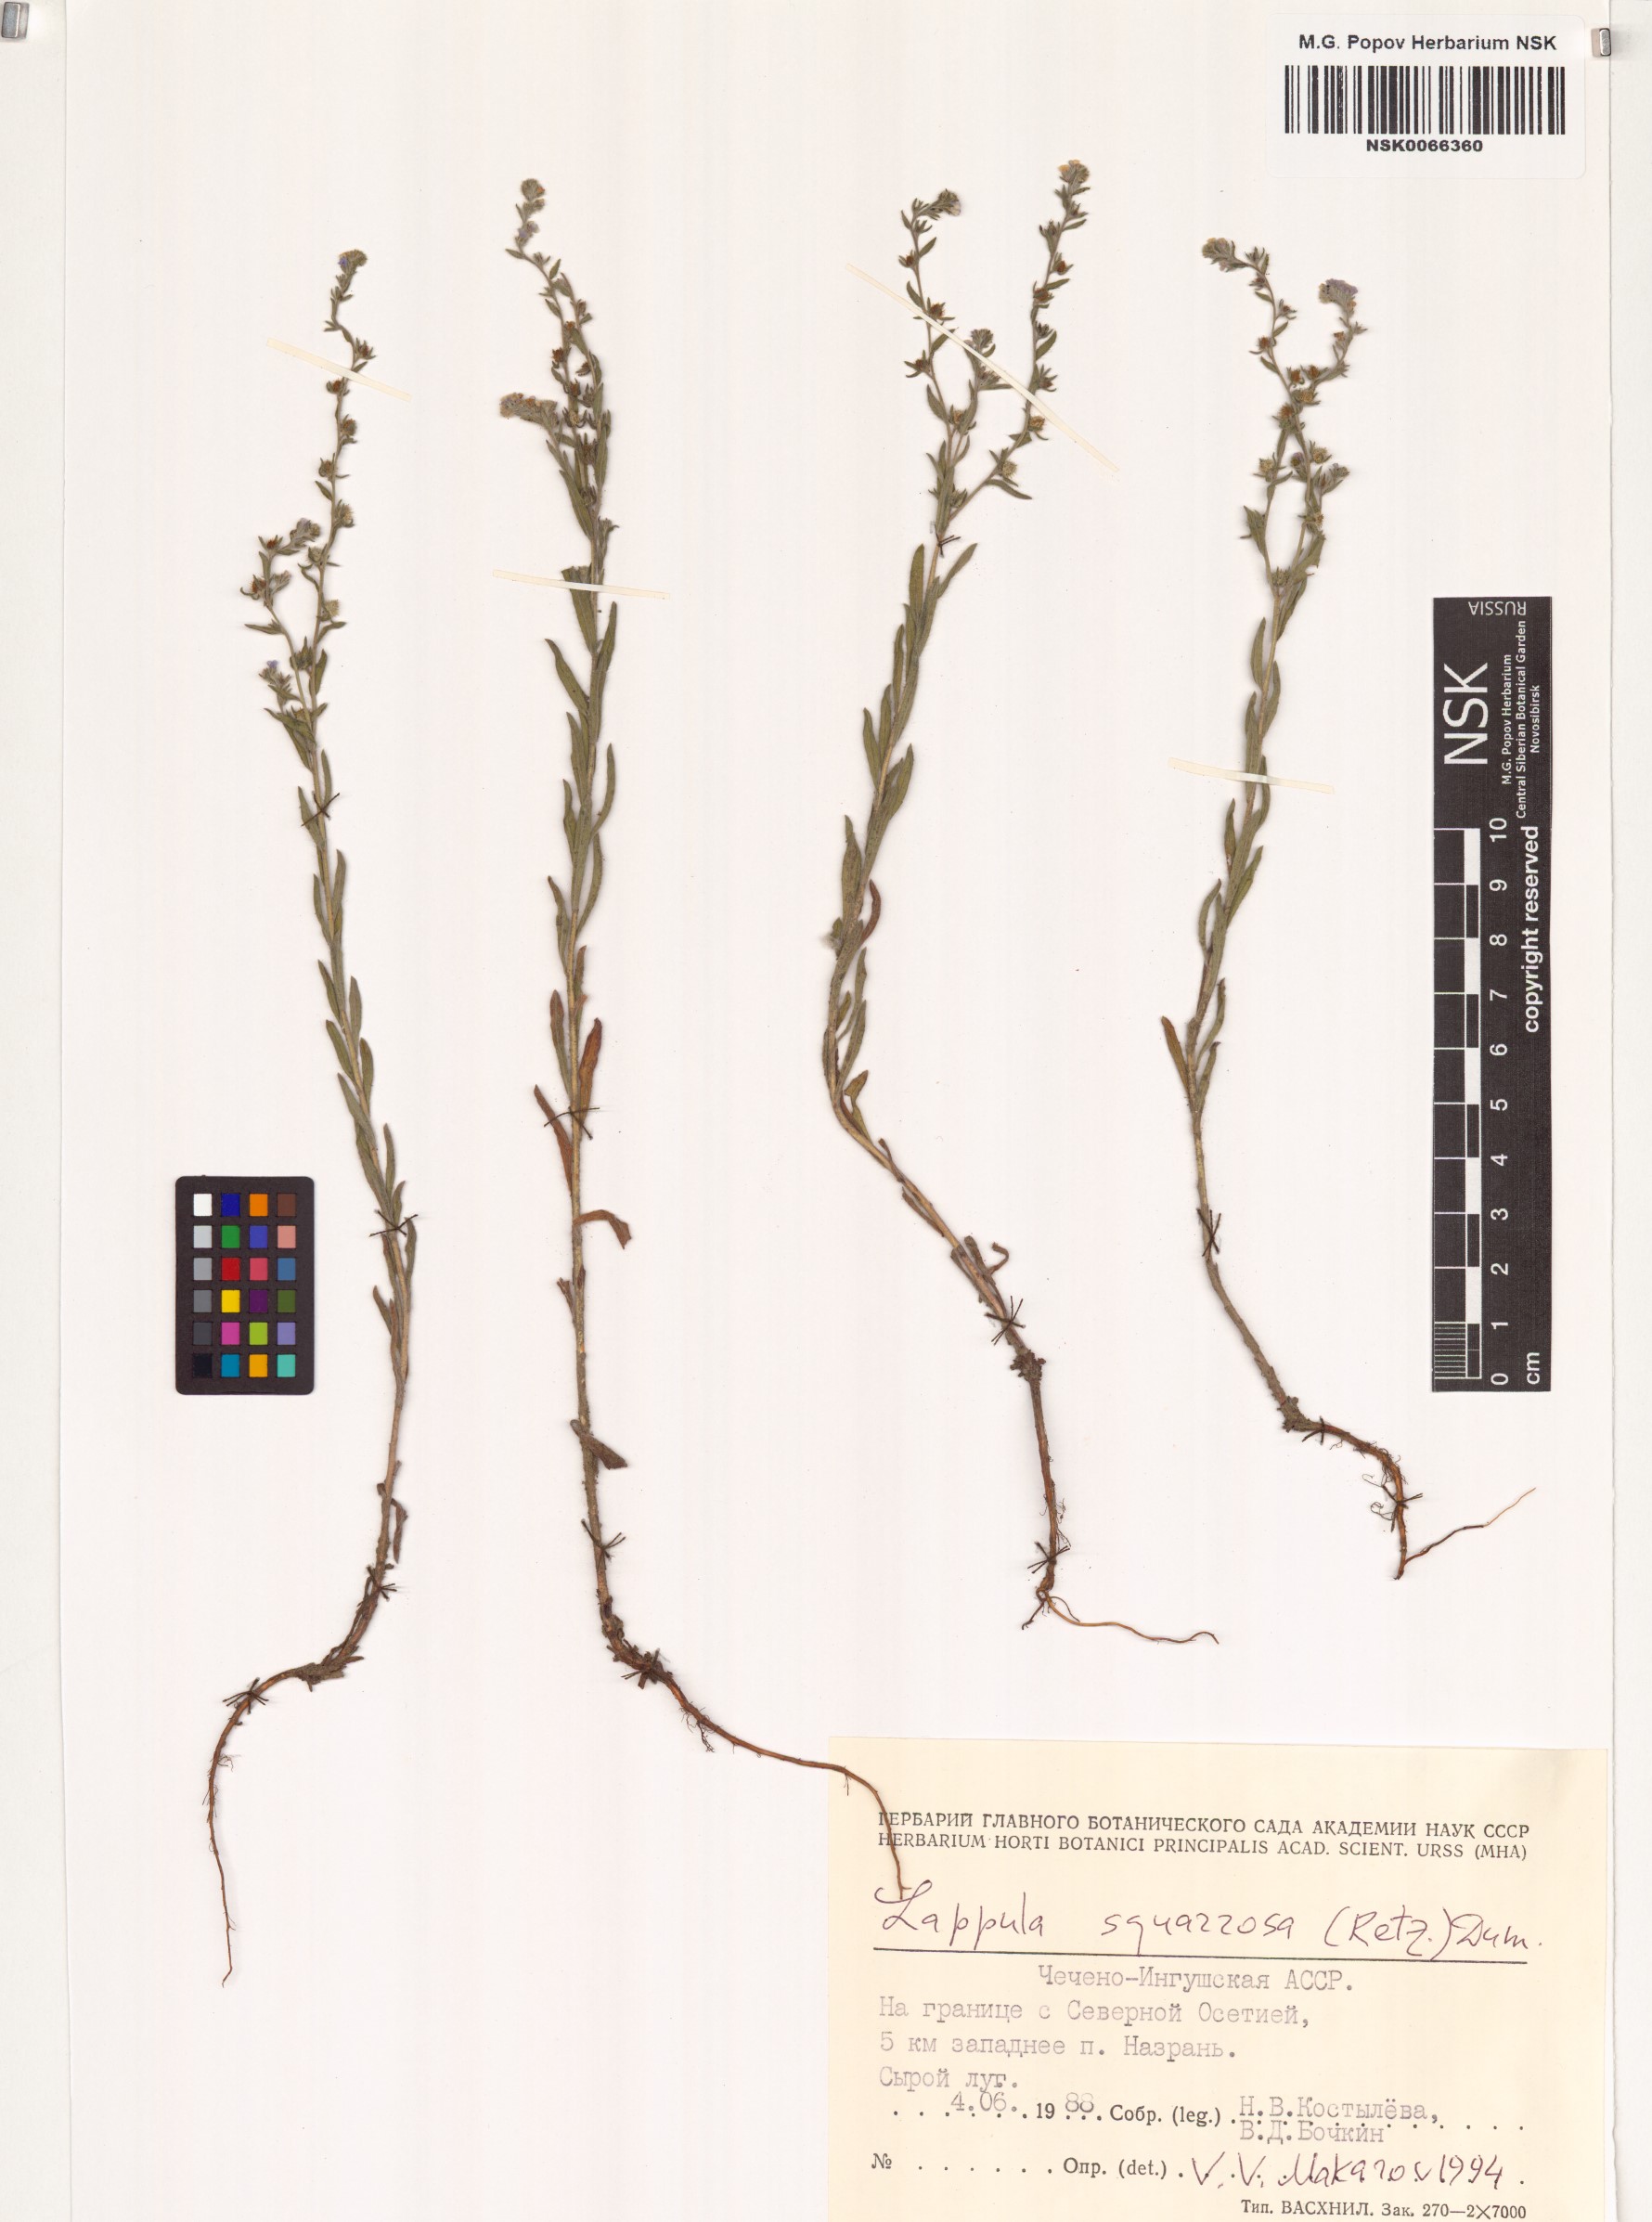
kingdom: Plantae
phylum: Tracheophyta
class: Magnoliopsida
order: Boraginales
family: Boraginaceae
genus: Lappula
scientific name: Lappula squarrosa
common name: European stickseed
